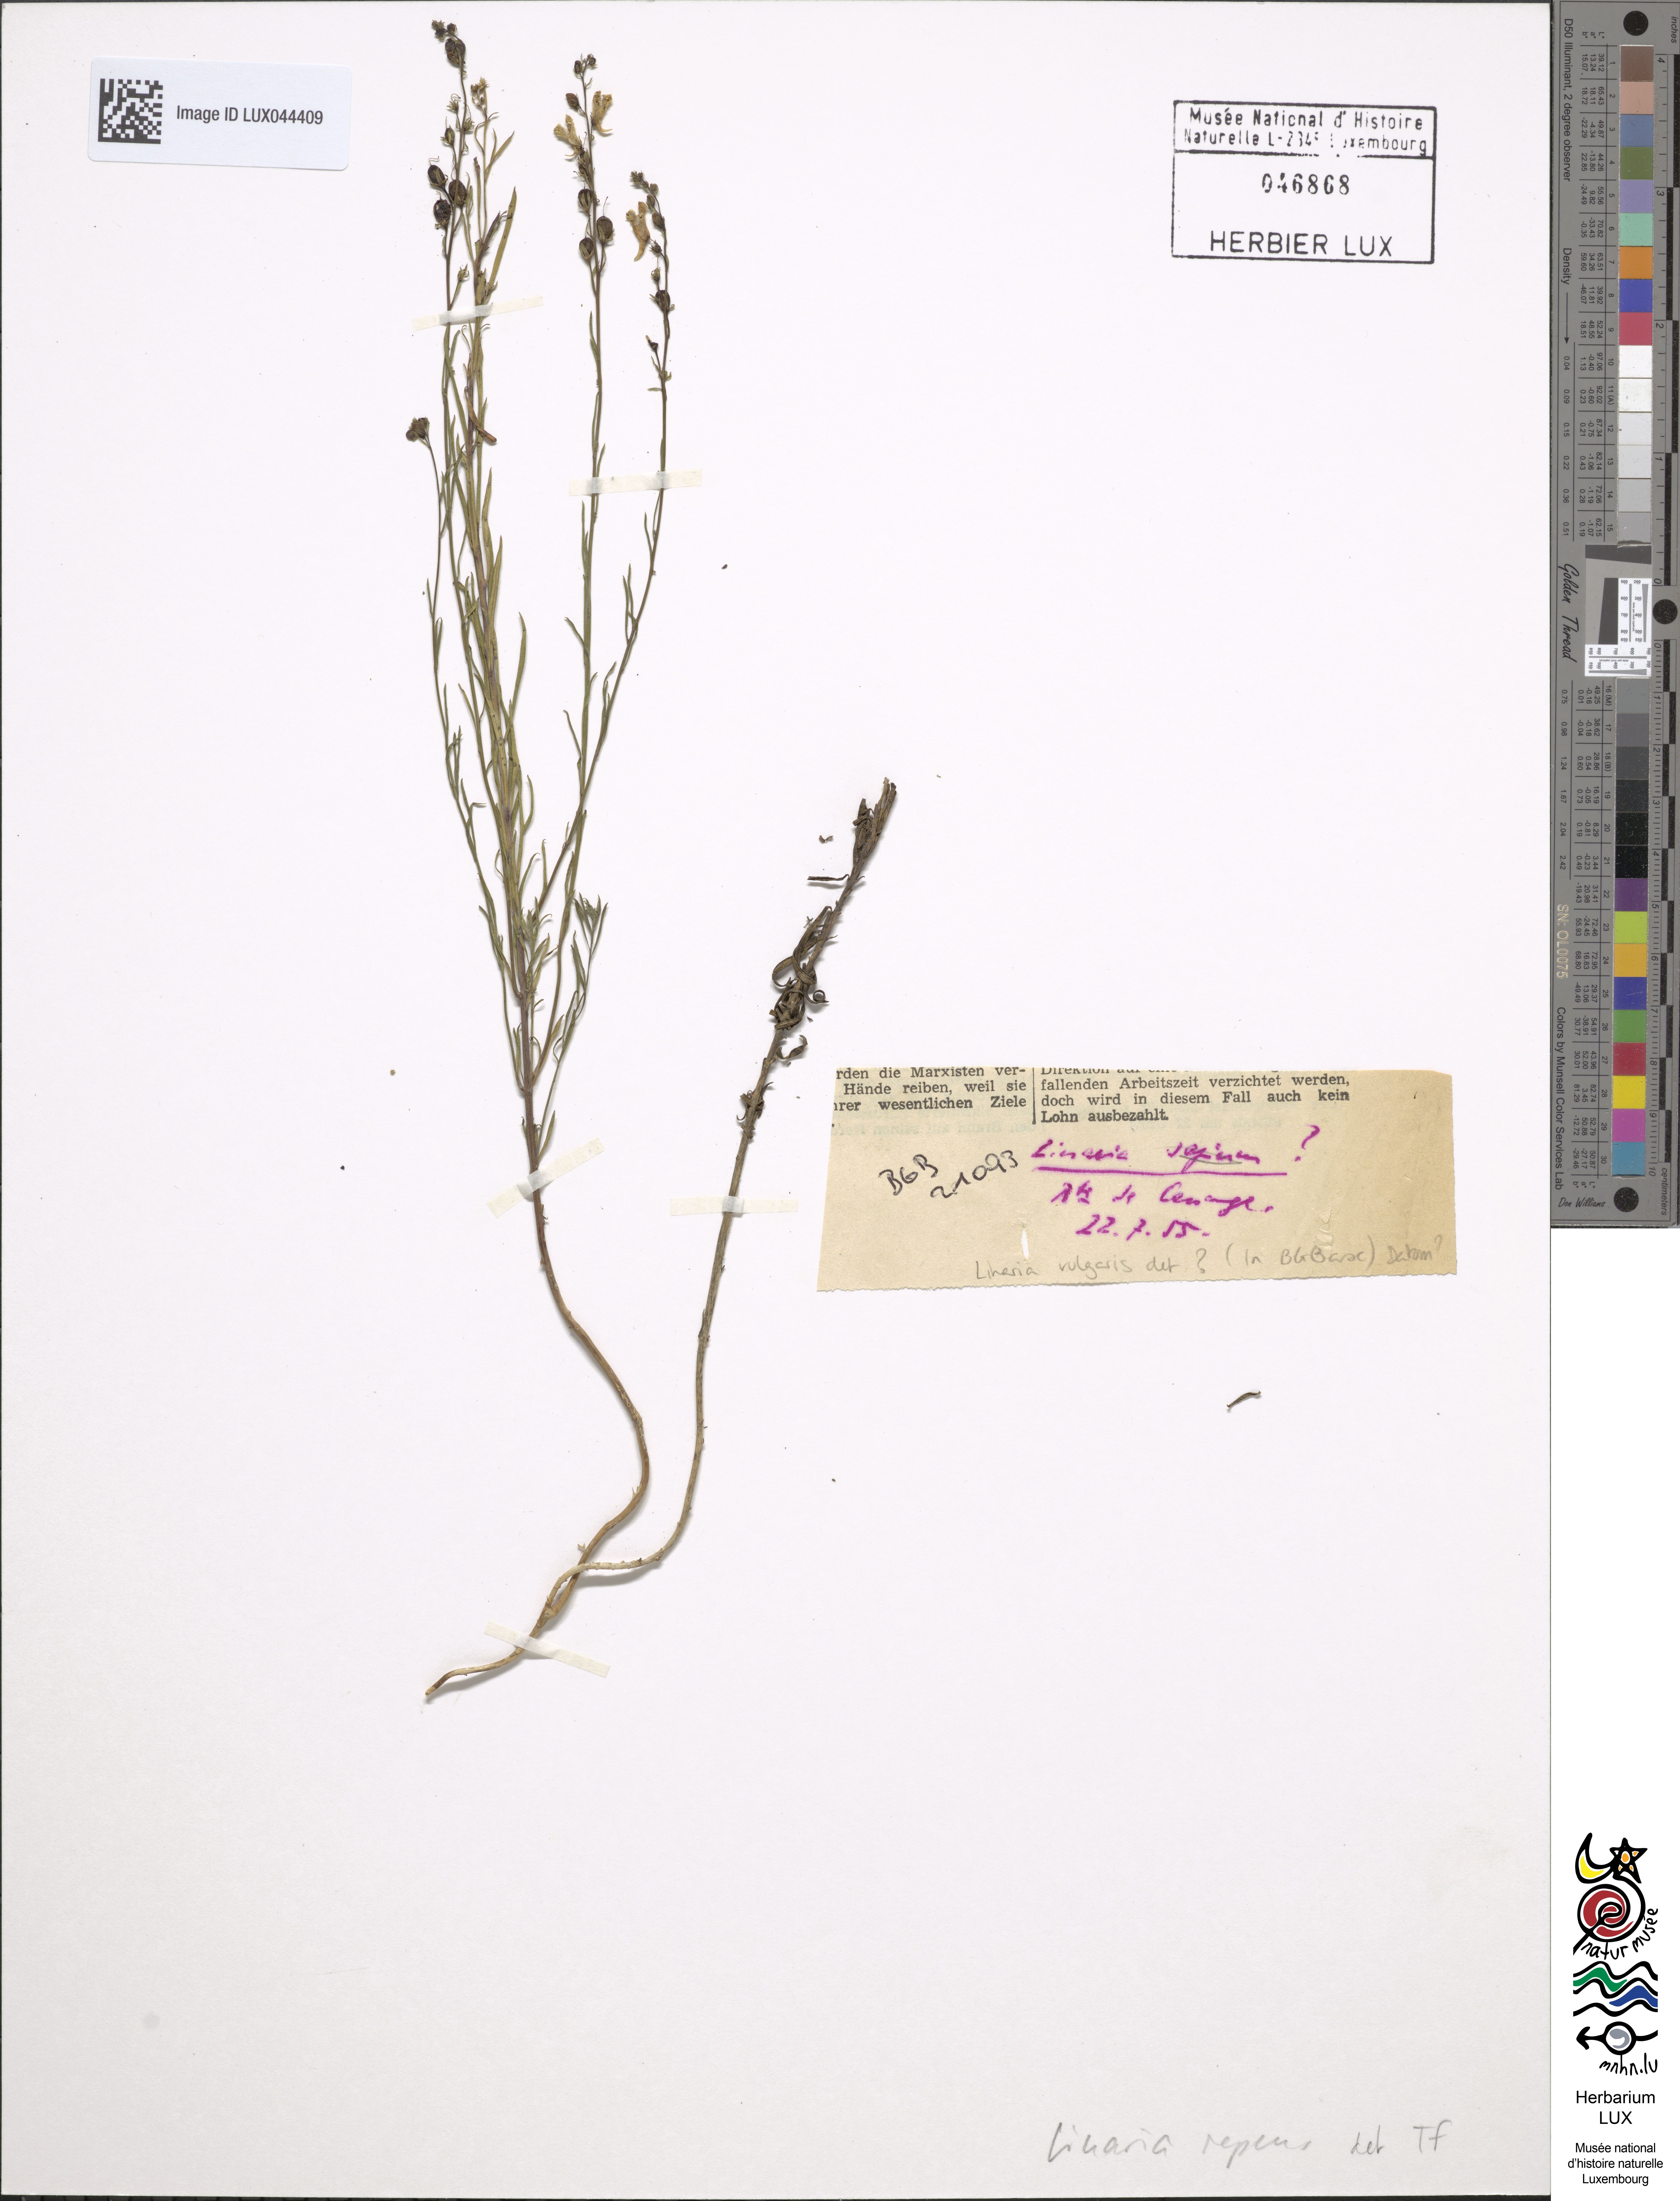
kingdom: Plantae
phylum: Tracheophyta
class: Magnoliopsida
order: Lamiales
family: Plantaginaceae
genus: Linaria
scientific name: Linaria repens
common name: Pale toadflax
